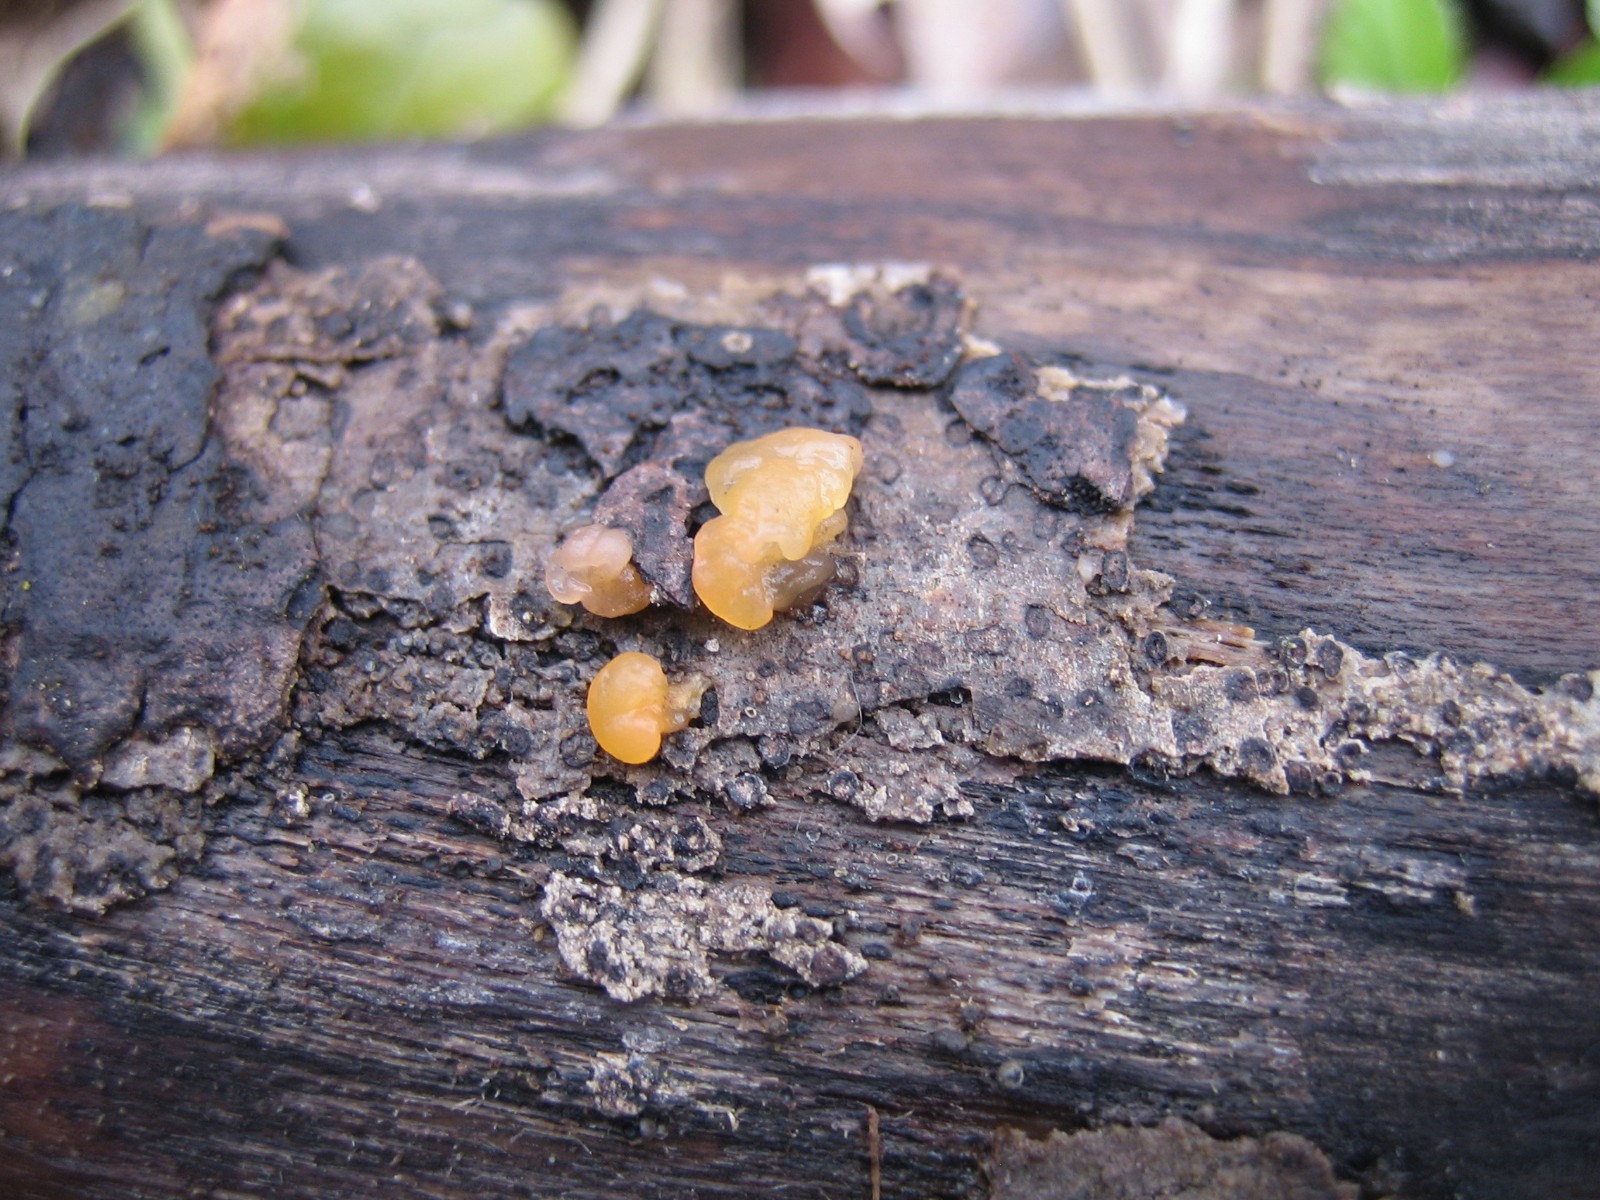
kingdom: Fungi
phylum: Basidiomycota
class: Dacrymycetes
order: Dacrymycetales
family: Dacrymycetaceae
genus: Dacrymyces
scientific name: Dacrymyces lacrymalis
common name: rynket tåresvamp
